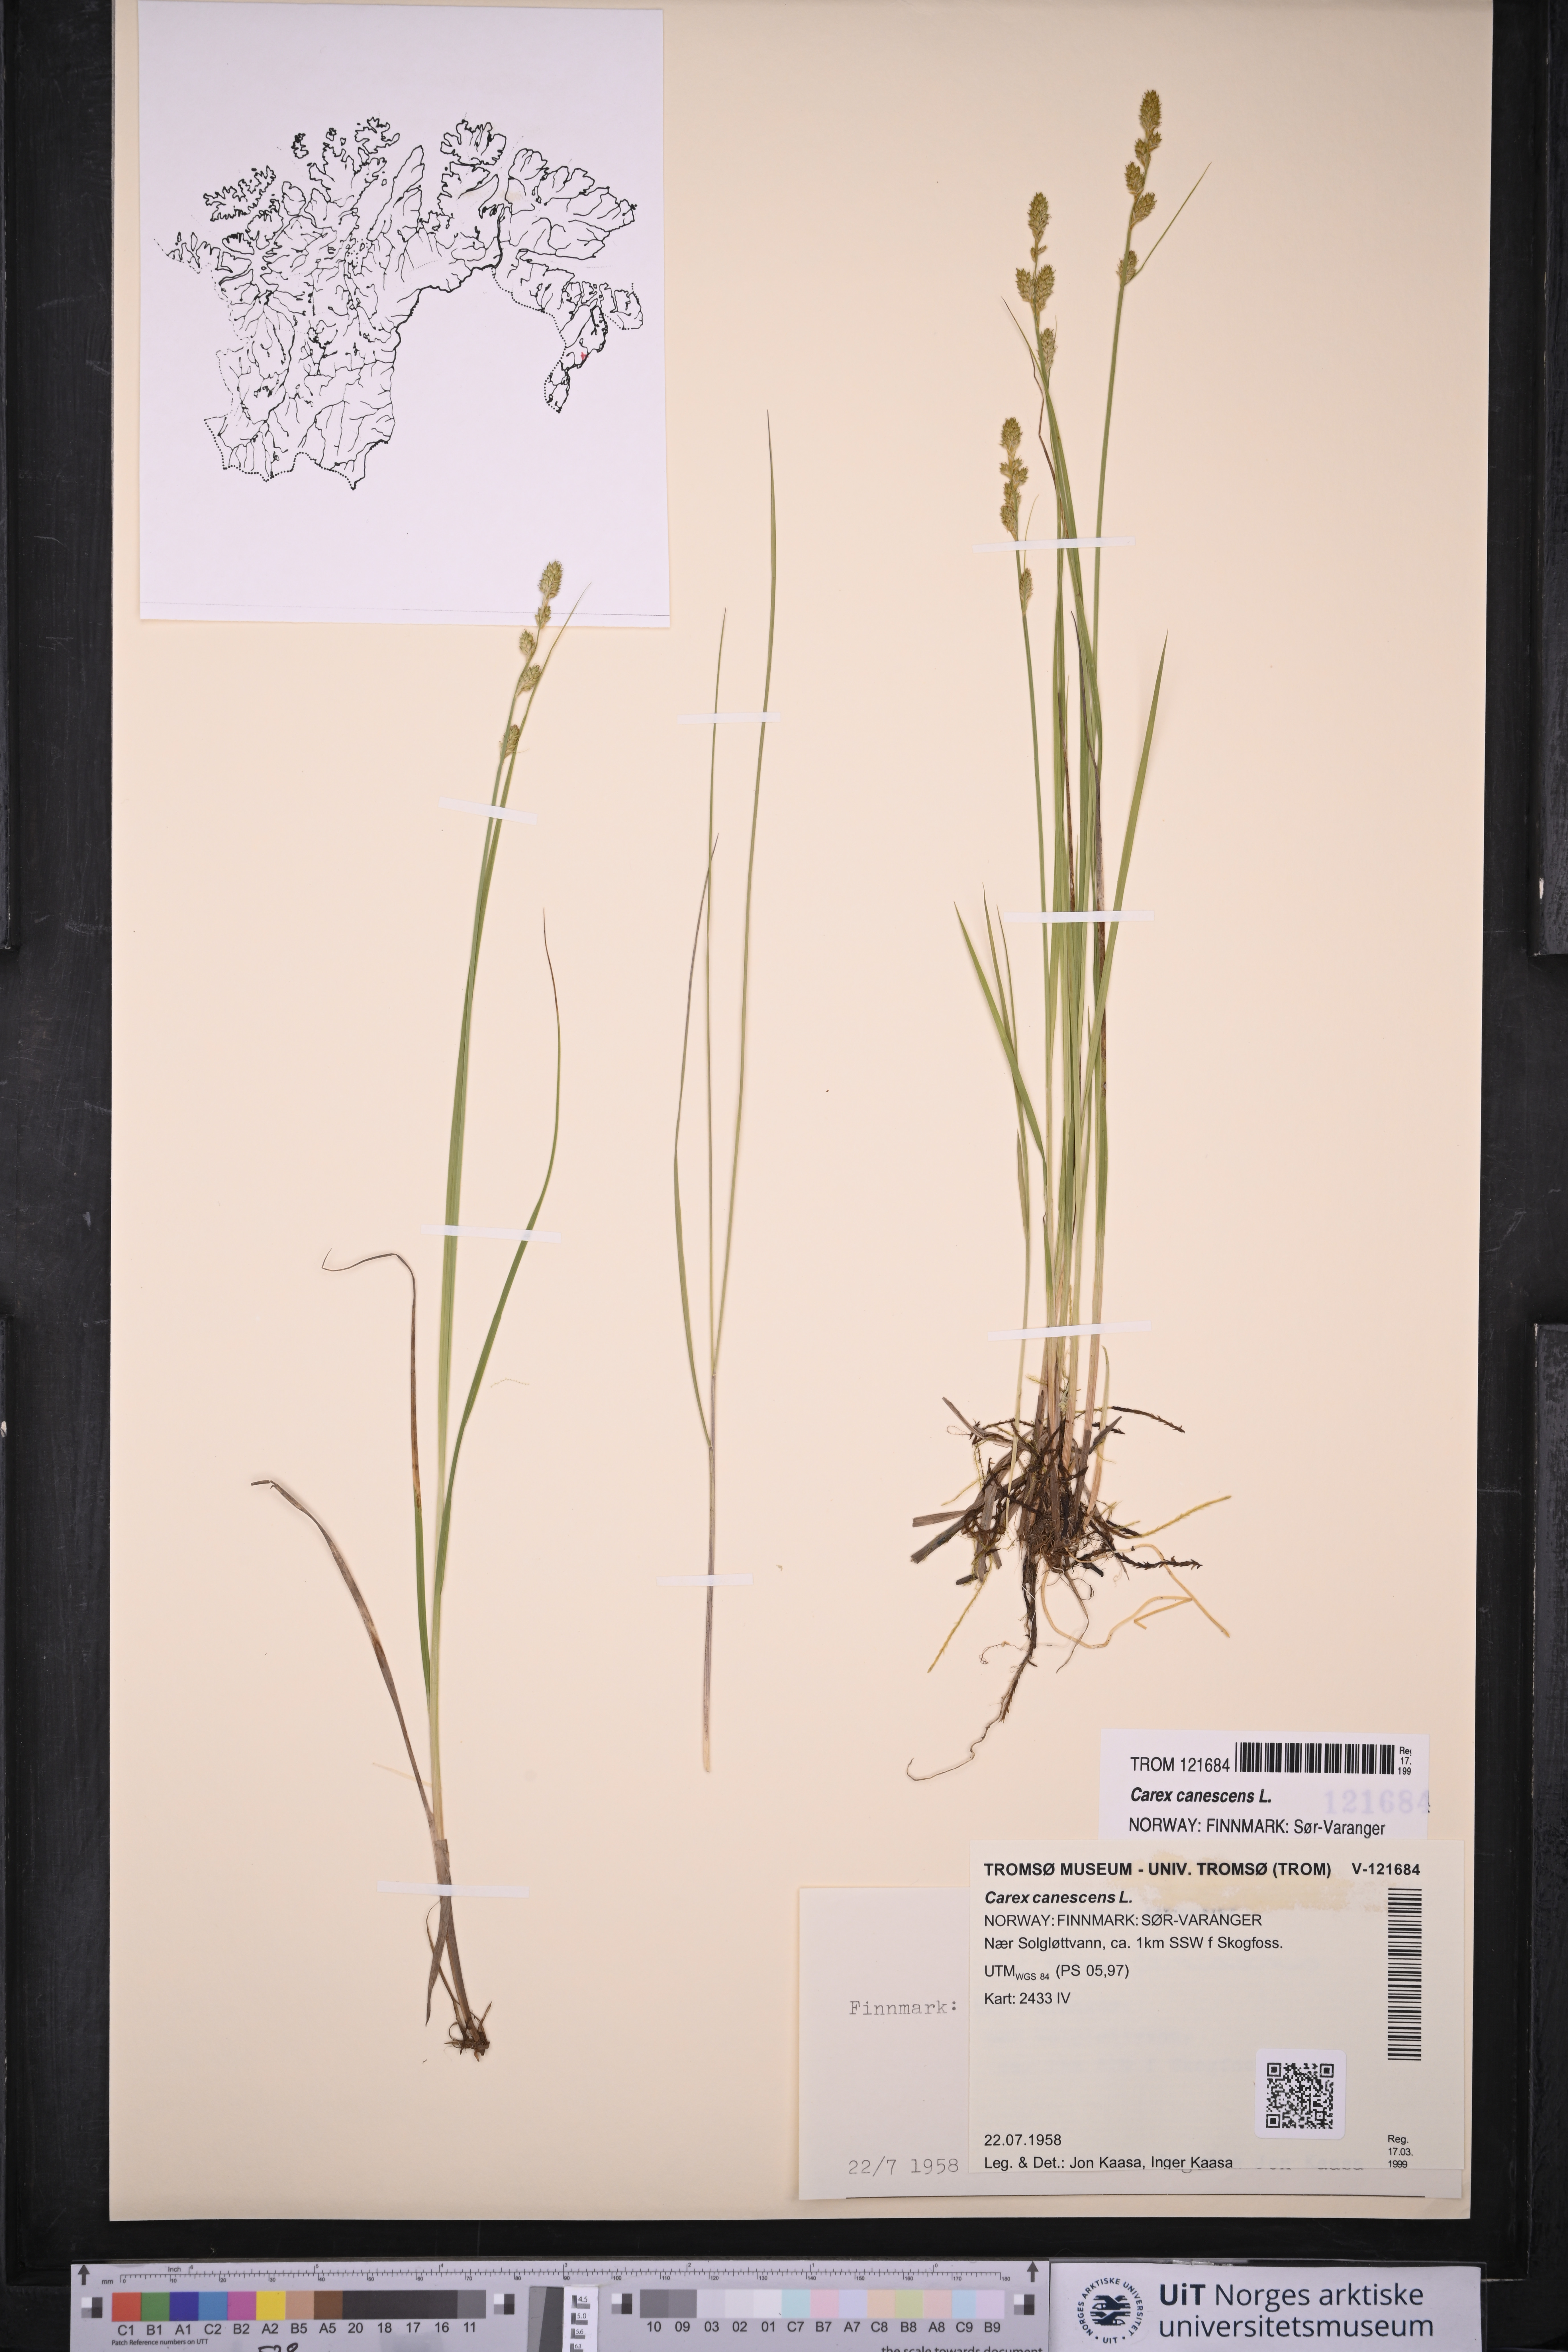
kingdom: Plantae
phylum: Tracheophyta
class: Liliopsida
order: Poales
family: Cyperaceae
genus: Carex
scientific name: Carex canescens
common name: White sedge
